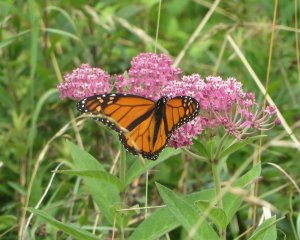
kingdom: Animalia
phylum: Arthropoda
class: Insecta
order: Lepidoptera
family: Nymphalidae
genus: Danaus
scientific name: Danaus plexippus
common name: Monarch
